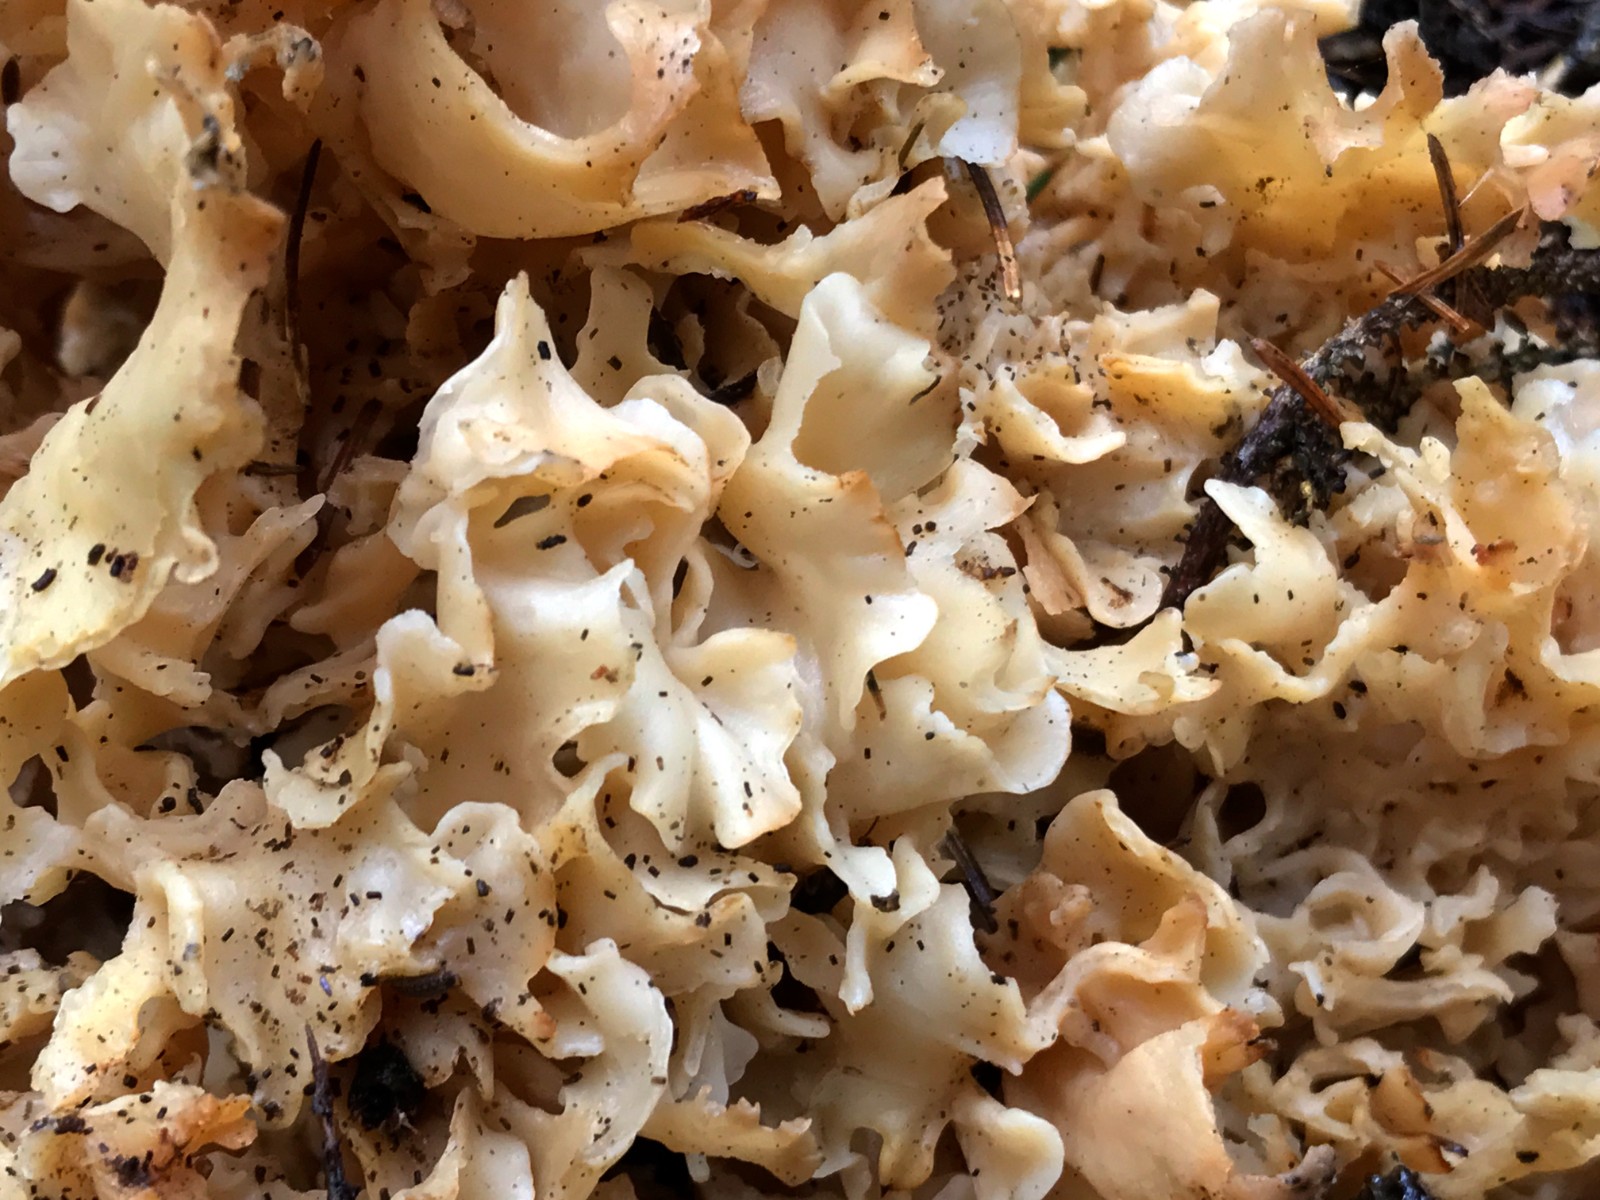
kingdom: Fungi
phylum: Basidiomycota
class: Agaricomycetes
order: Polyporales
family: Sparassidaceae
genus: Sparassis
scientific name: Sparassis crispa
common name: kruset blomkålssvamp
